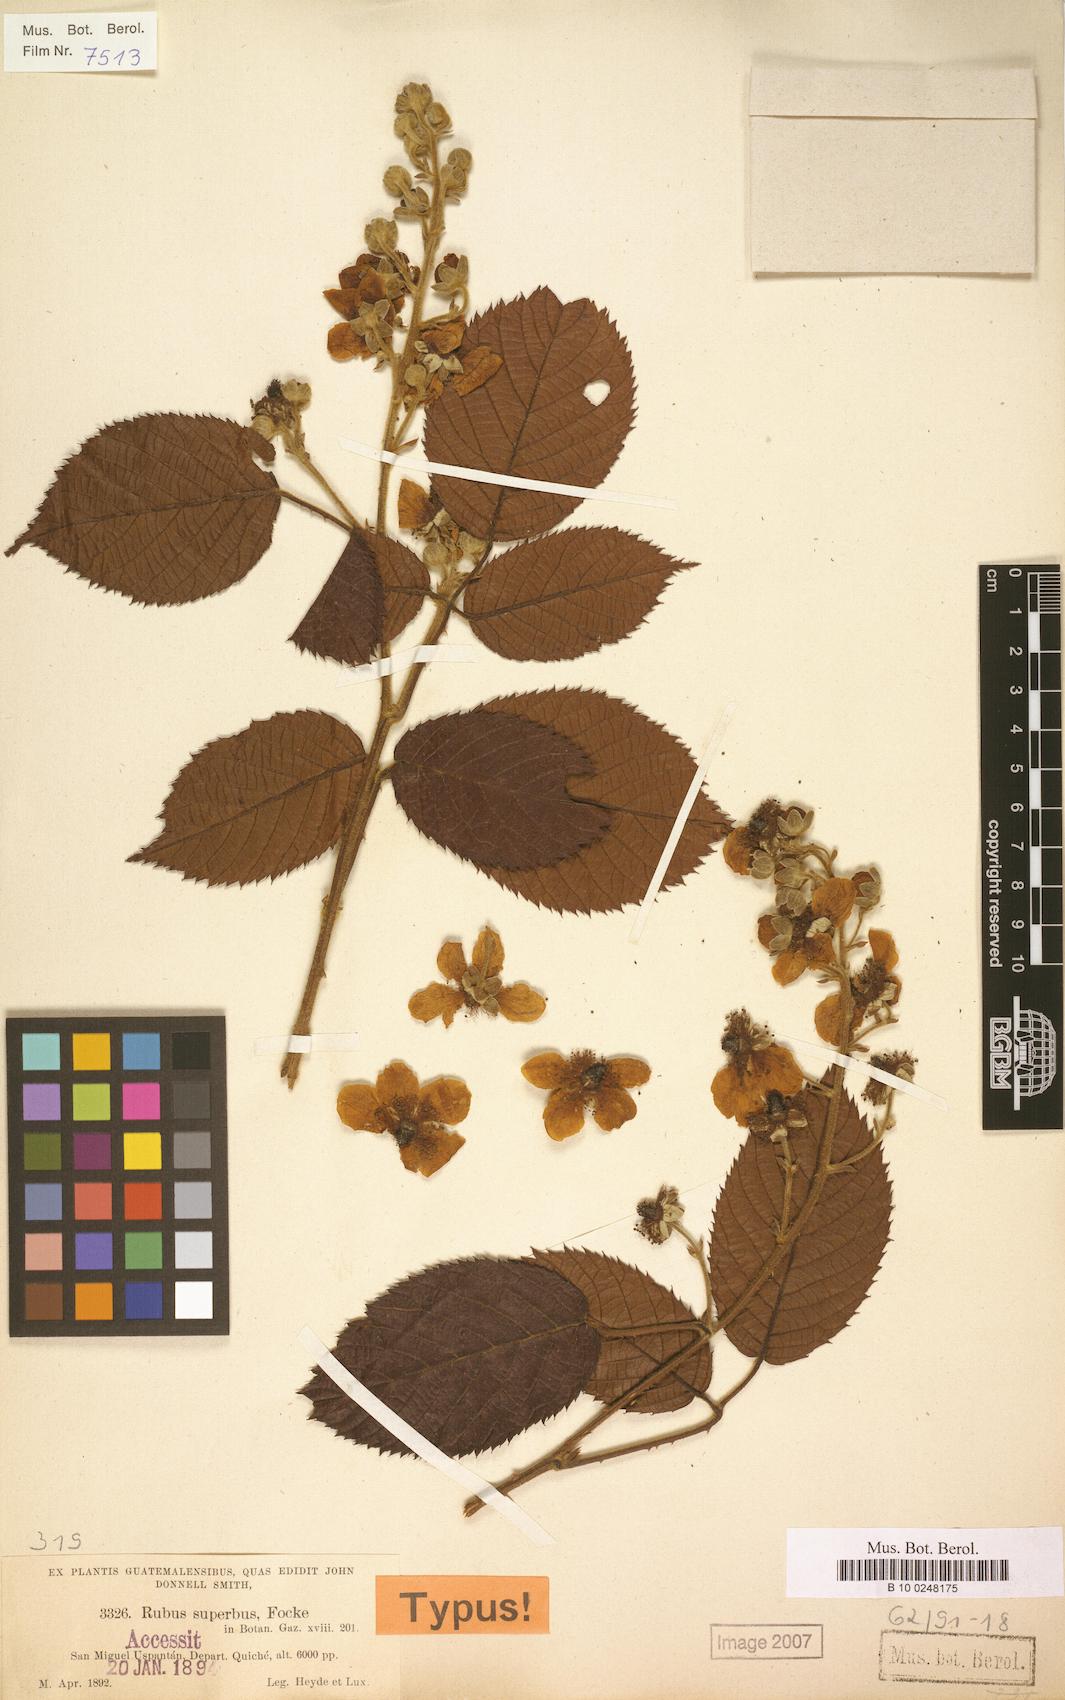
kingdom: Plantae
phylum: Tracheophyta
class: Magnoliopsida
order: Rosales
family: Rosaceae
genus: Rubus
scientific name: Rubus superbus
